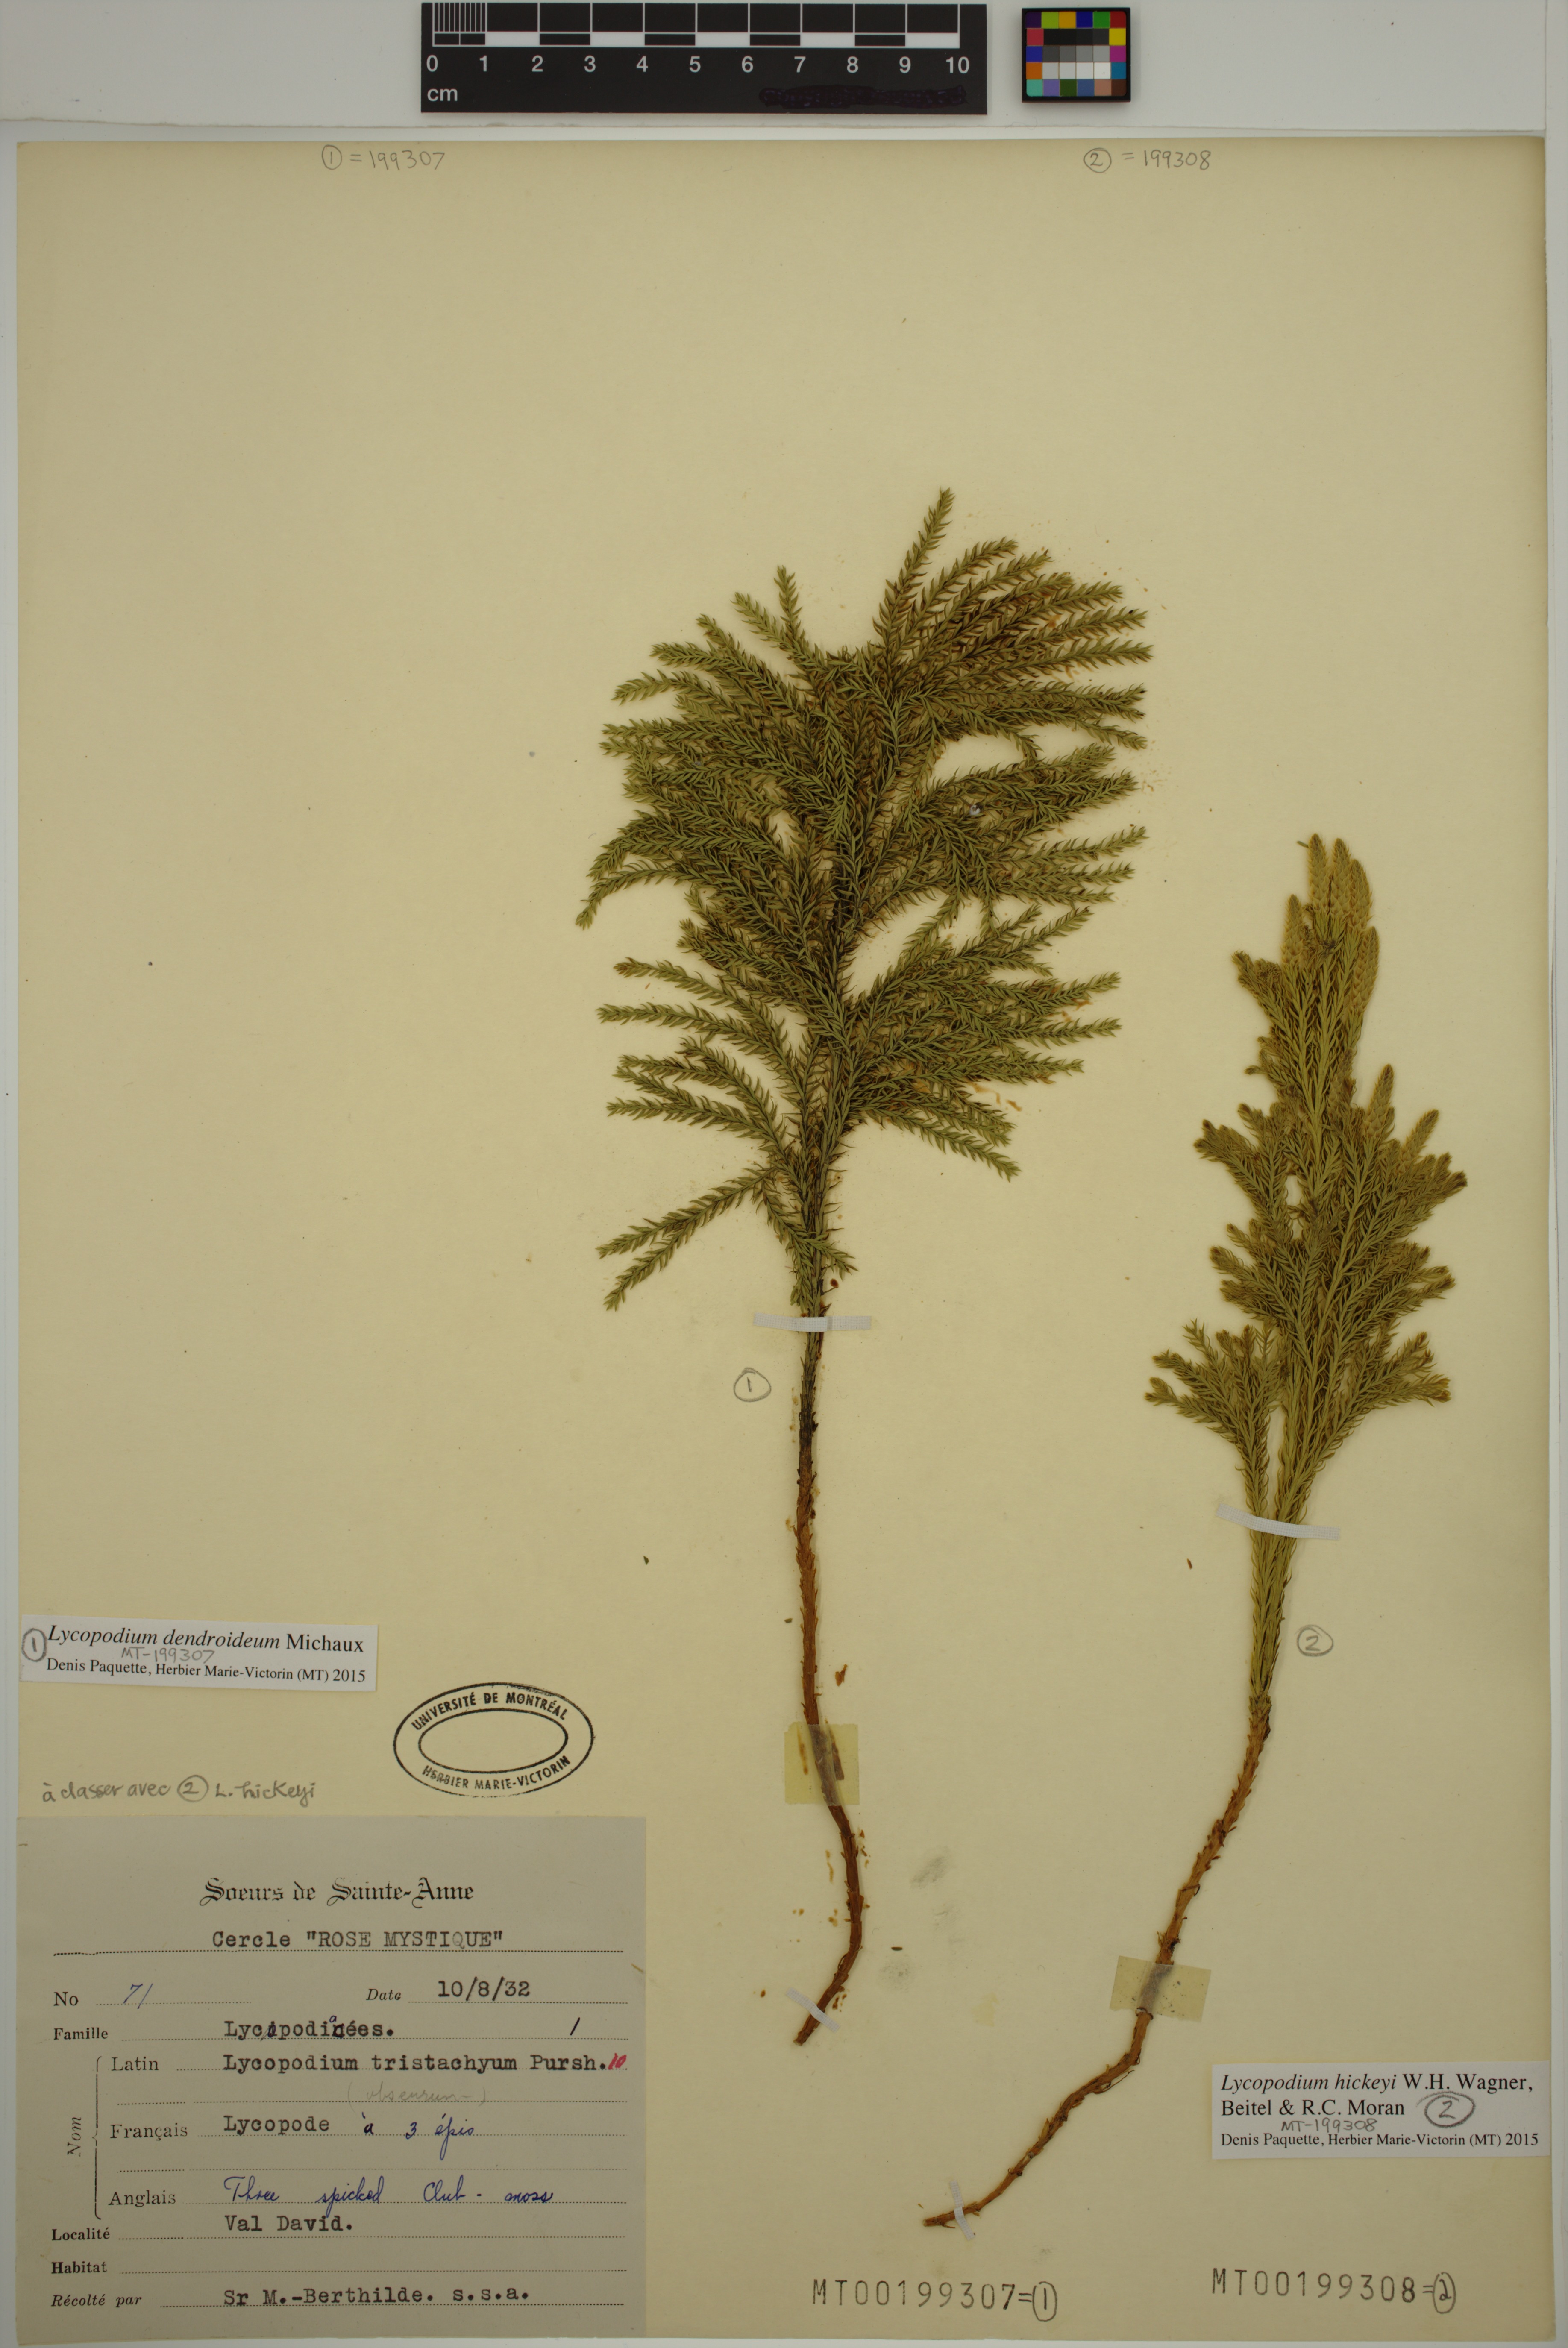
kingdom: Plantae
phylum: Tracheophyta
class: Lycopodiopsida
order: Lycopodiales
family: Lycopodiaceae
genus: Dendrolycopodium
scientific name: Dendrolycopodium dendroideum
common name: Northern tree-clubmoss
